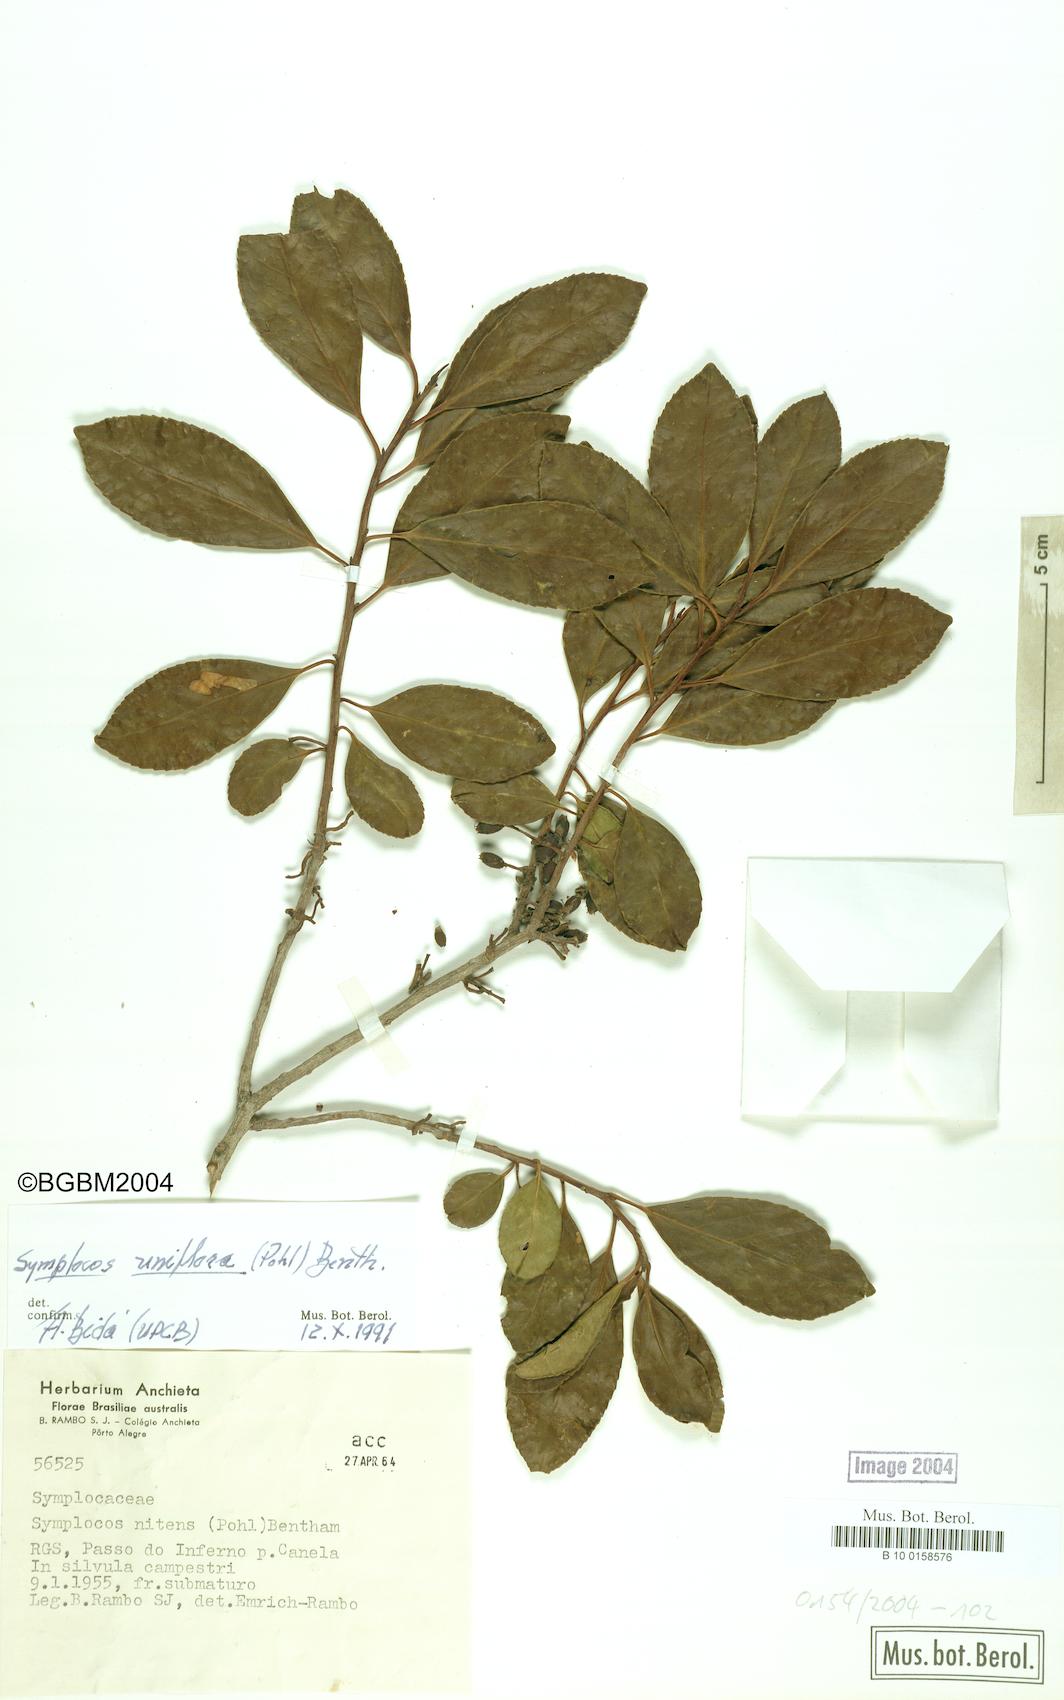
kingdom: Plantae
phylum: Tracheophyta
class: Magnoliopsida
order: Ericales
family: Symplocaceae
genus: Symplocos
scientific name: Symplocos uniflora
